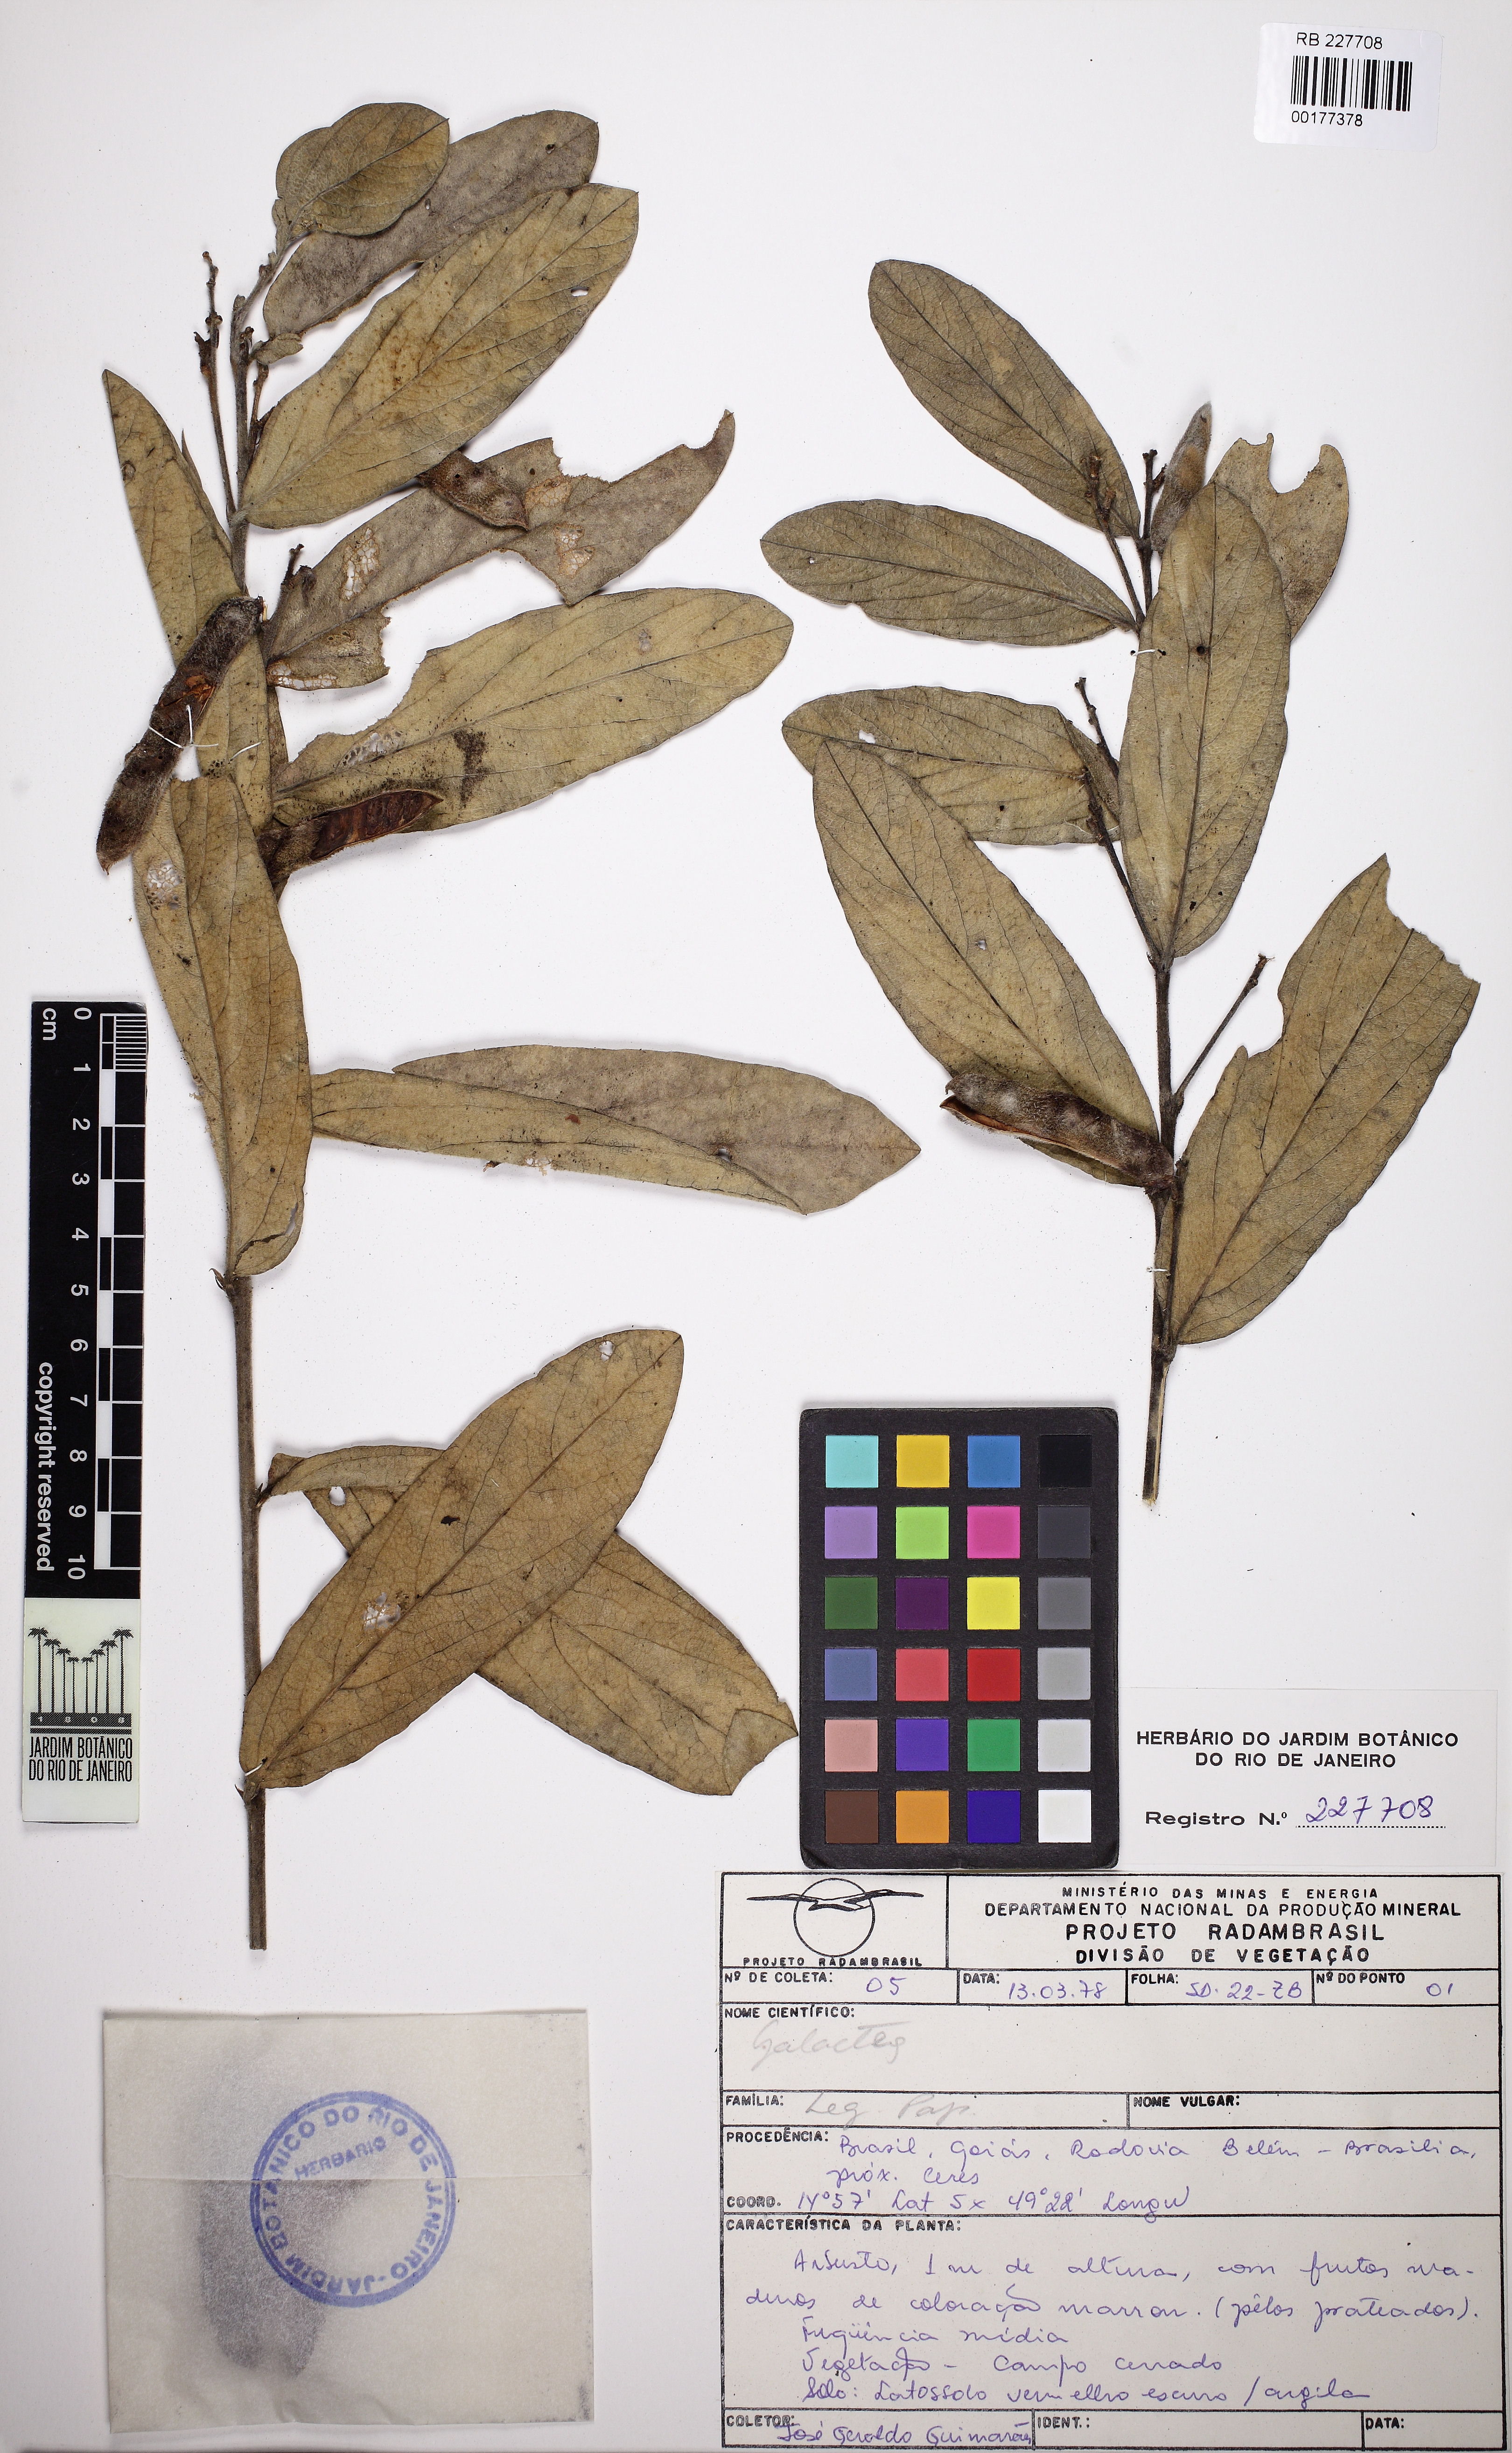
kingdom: Plantae
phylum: Tracheophyta
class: Magnoliopsida
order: Fabales
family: Fabaceae
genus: Galactia
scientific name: Galactia
